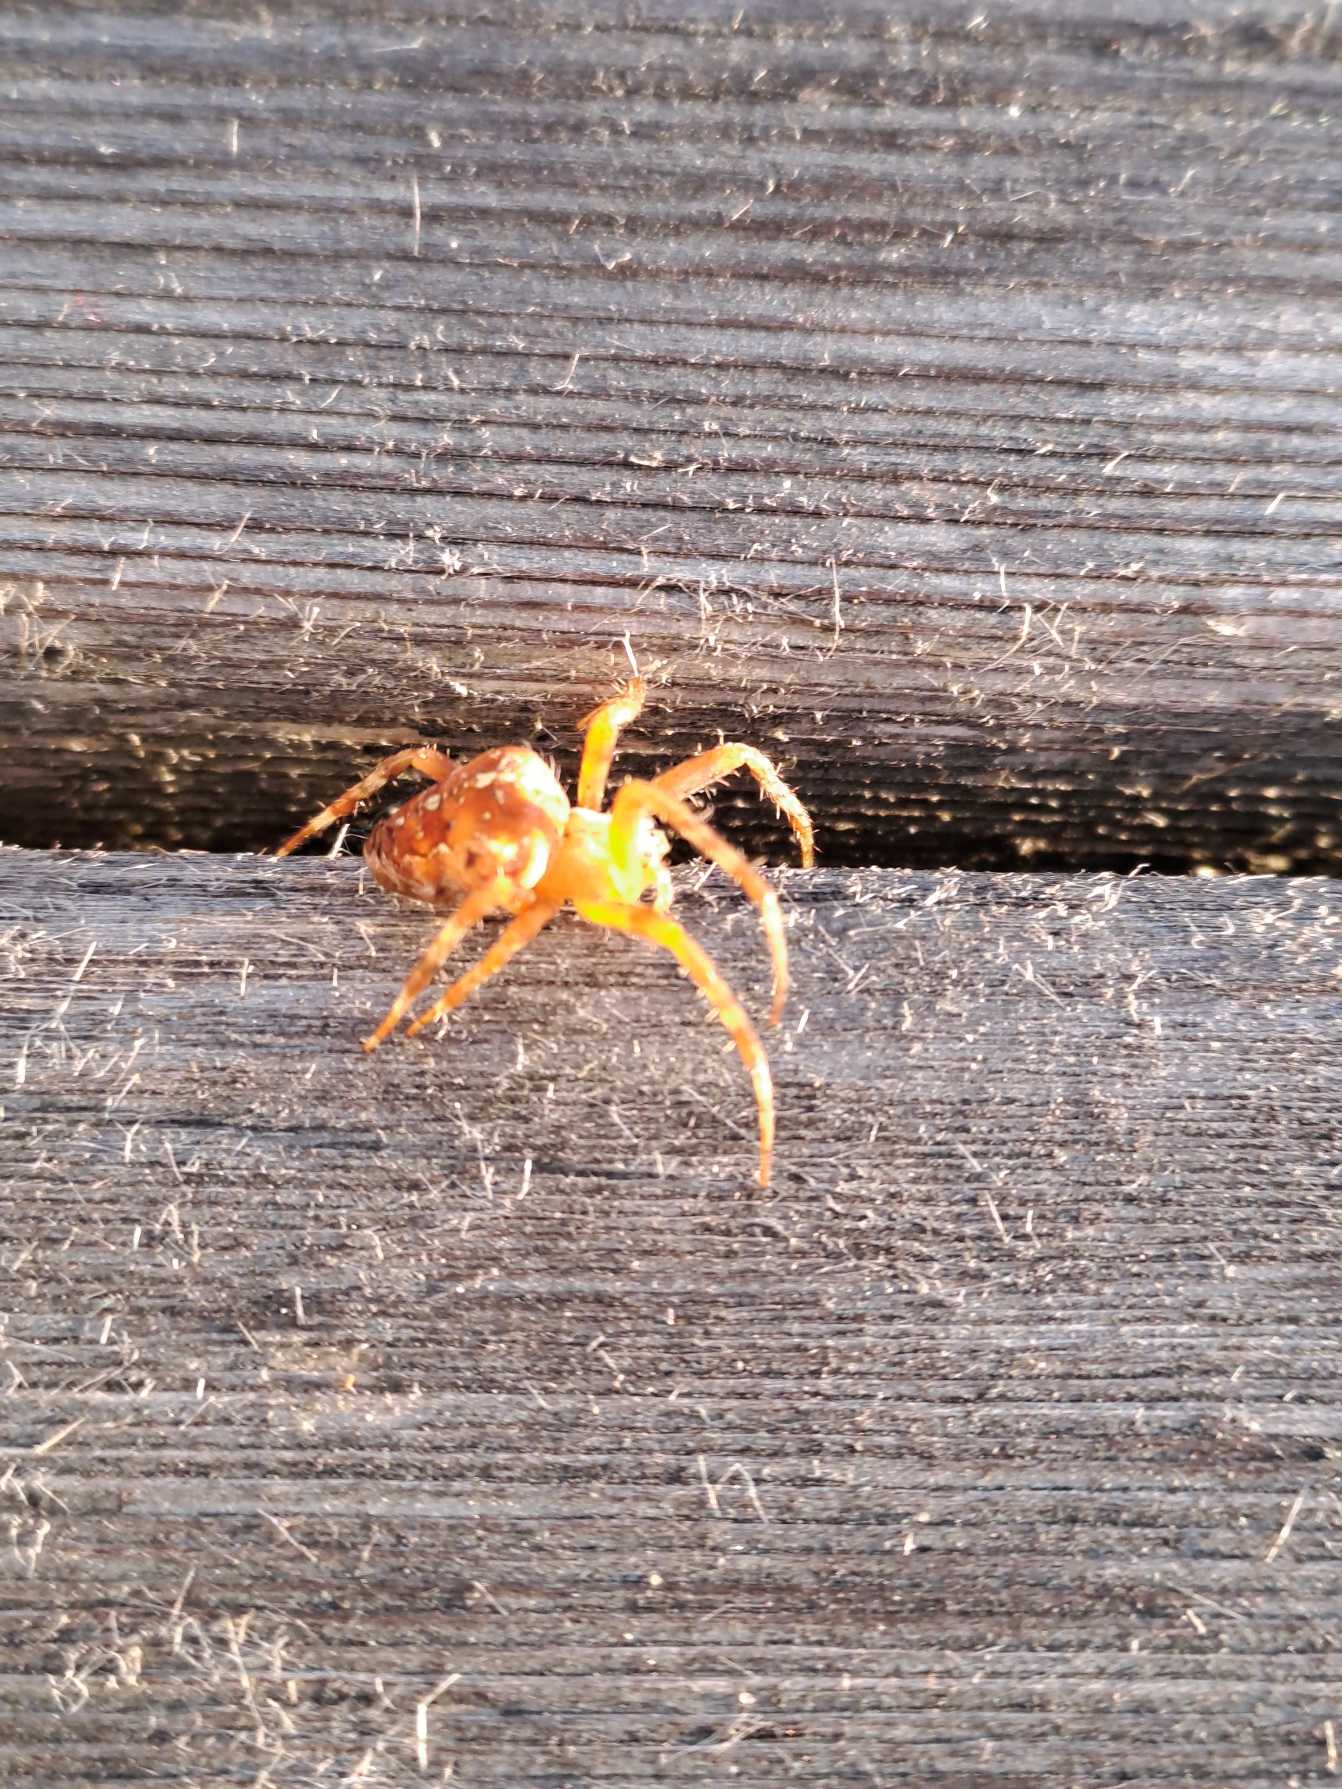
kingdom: Animalia
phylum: Arthropoda
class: Arachnida
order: Araneae
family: Araneidae
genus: Araneus
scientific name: Araneus diadematus
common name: Korsedderkop
